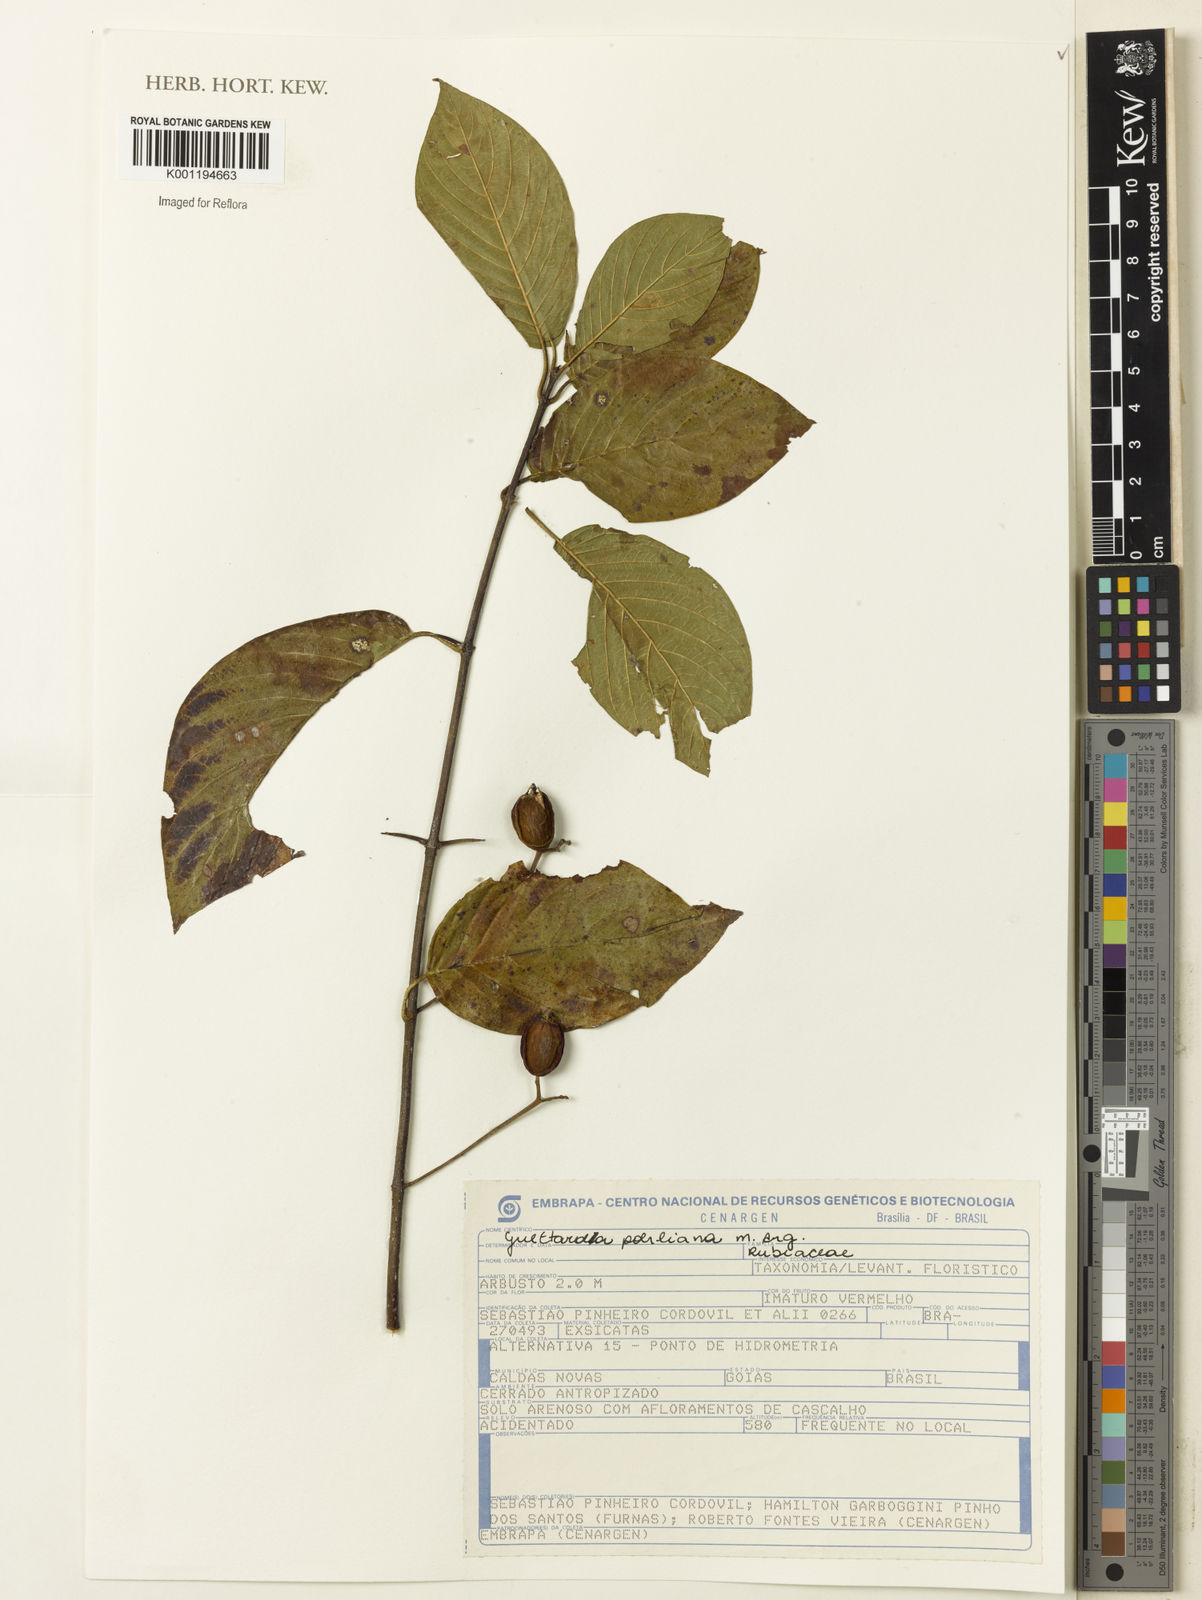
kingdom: Plantae
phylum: Tracheophyta
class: Magnoliopsida
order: Gentianales
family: Rubiaceae
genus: Guettarda
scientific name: Guettarda
